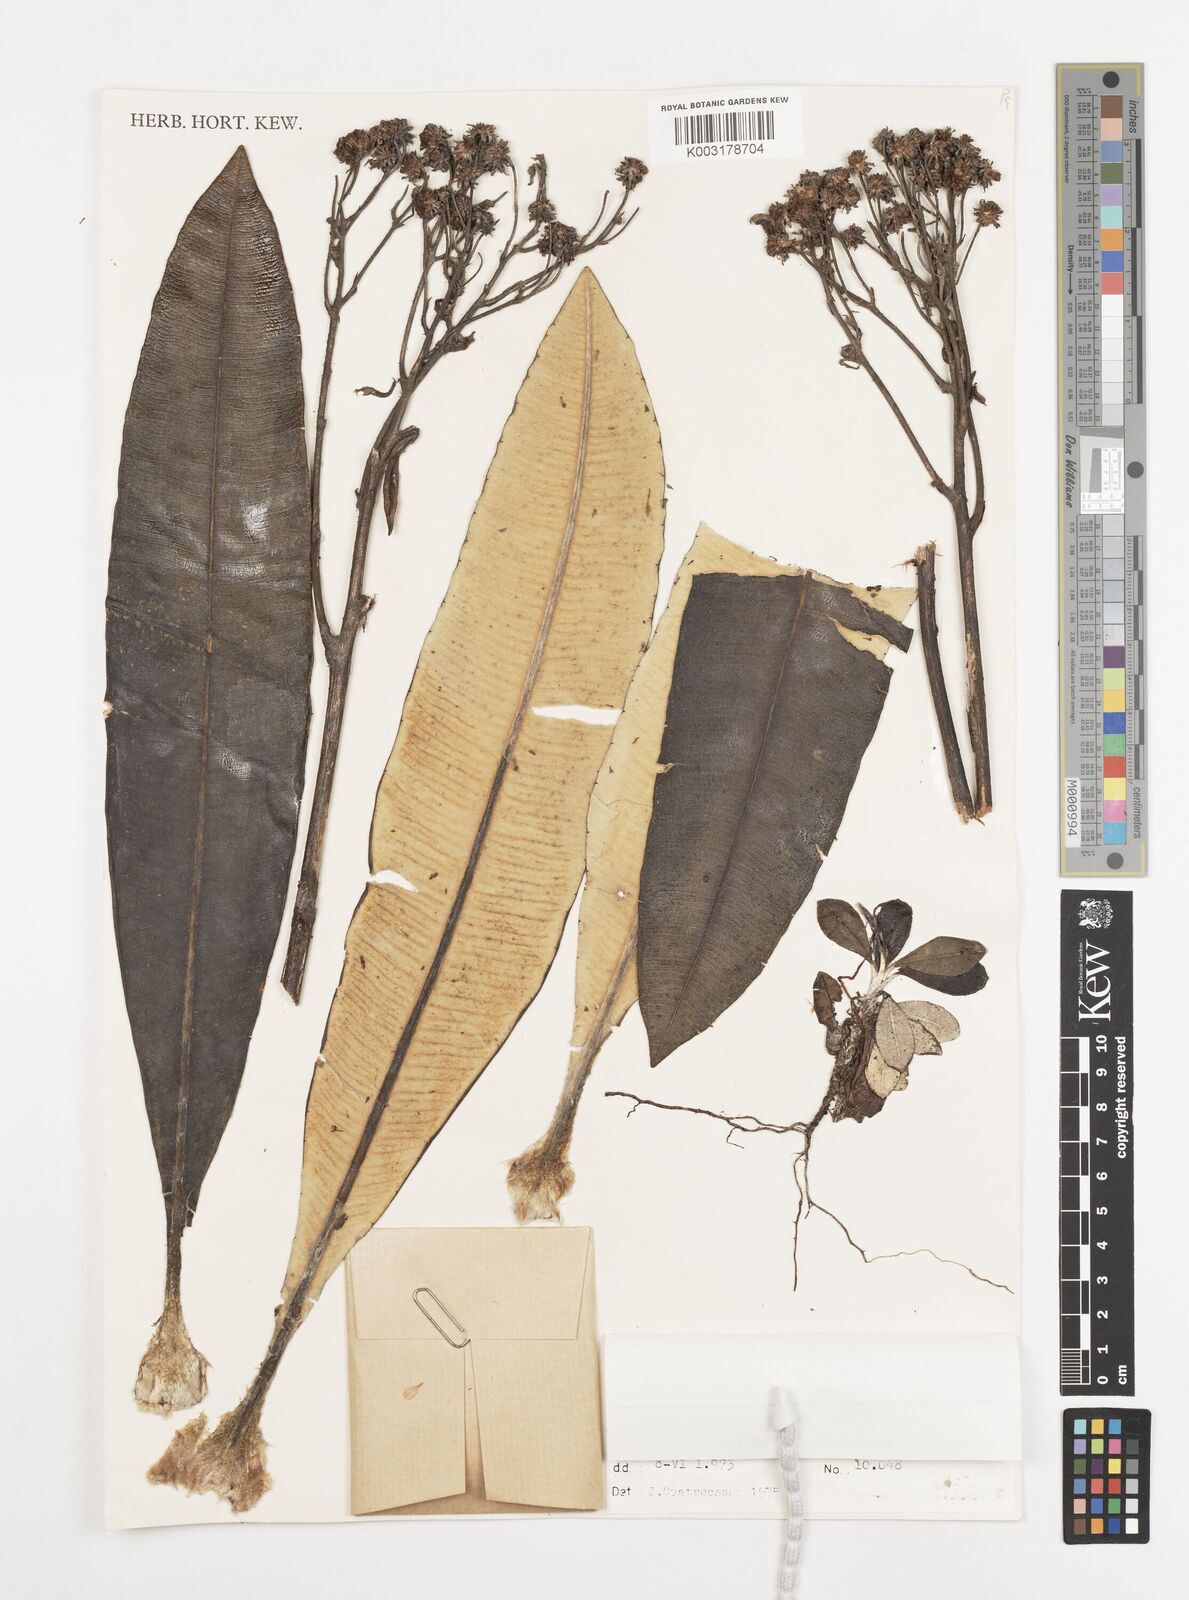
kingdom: Plantae
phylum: Tracheophyta
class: Magnoliopsida
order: Asterales
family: Asteraceae
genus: Espeletia
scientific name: Espeletia occulta
